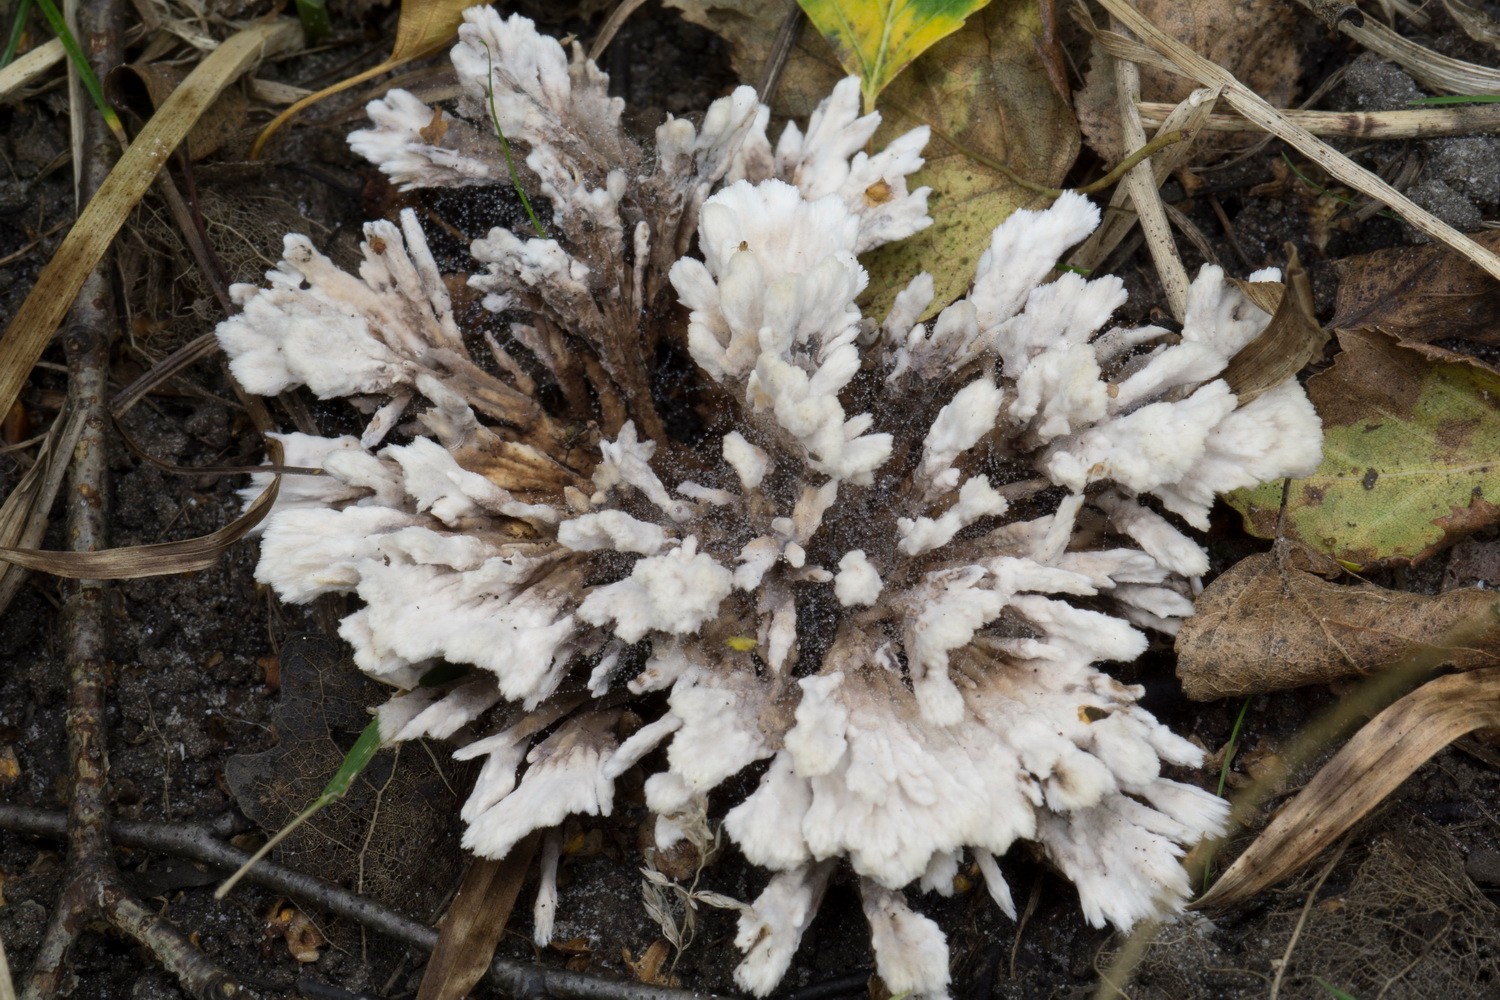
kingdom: Fungi
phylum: Basidiomycota
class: Agaricomycetes
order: Thelephorales
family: Thelephoraceae
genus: Thelephora
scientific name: Thelephora penicillata
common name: fladtrådt frynsesvamp
